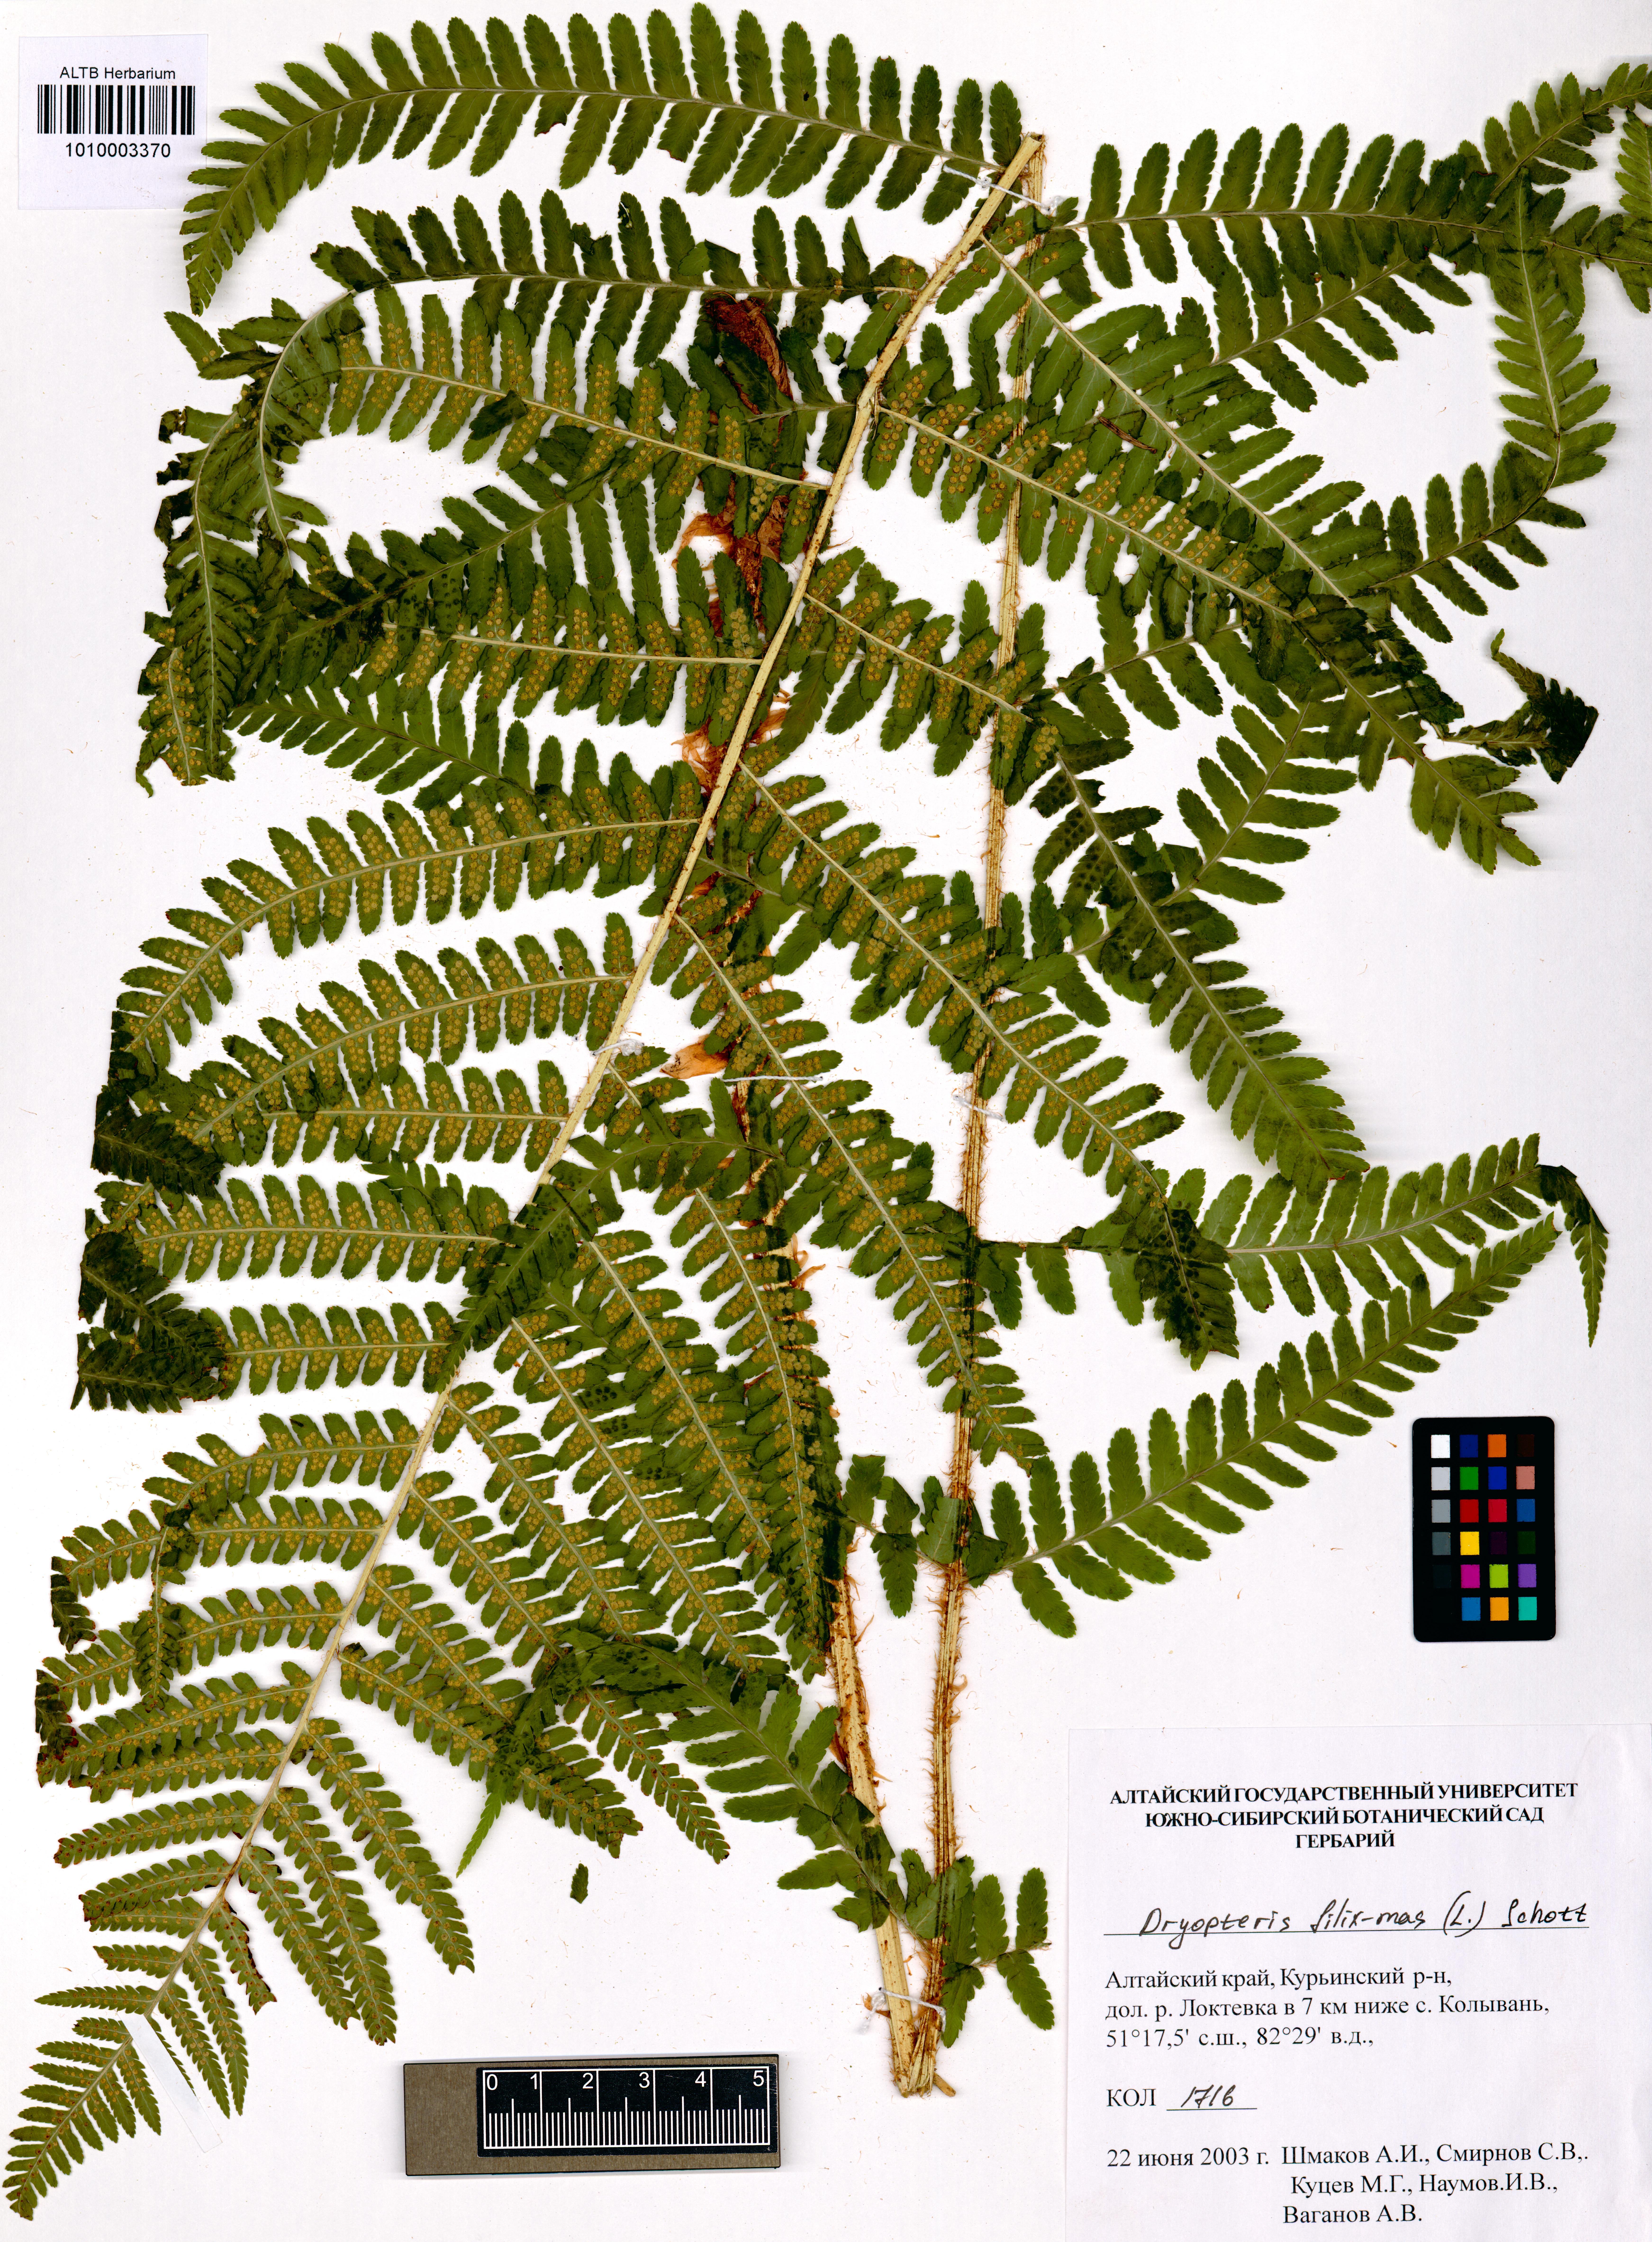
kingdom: Plantae
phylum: Tracheophyta
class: Polypodiopsida
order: Polypodiales
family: Dryopteridaceae
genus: Dryopteris
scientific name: Dryopteris filix-mas
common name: Male fern
